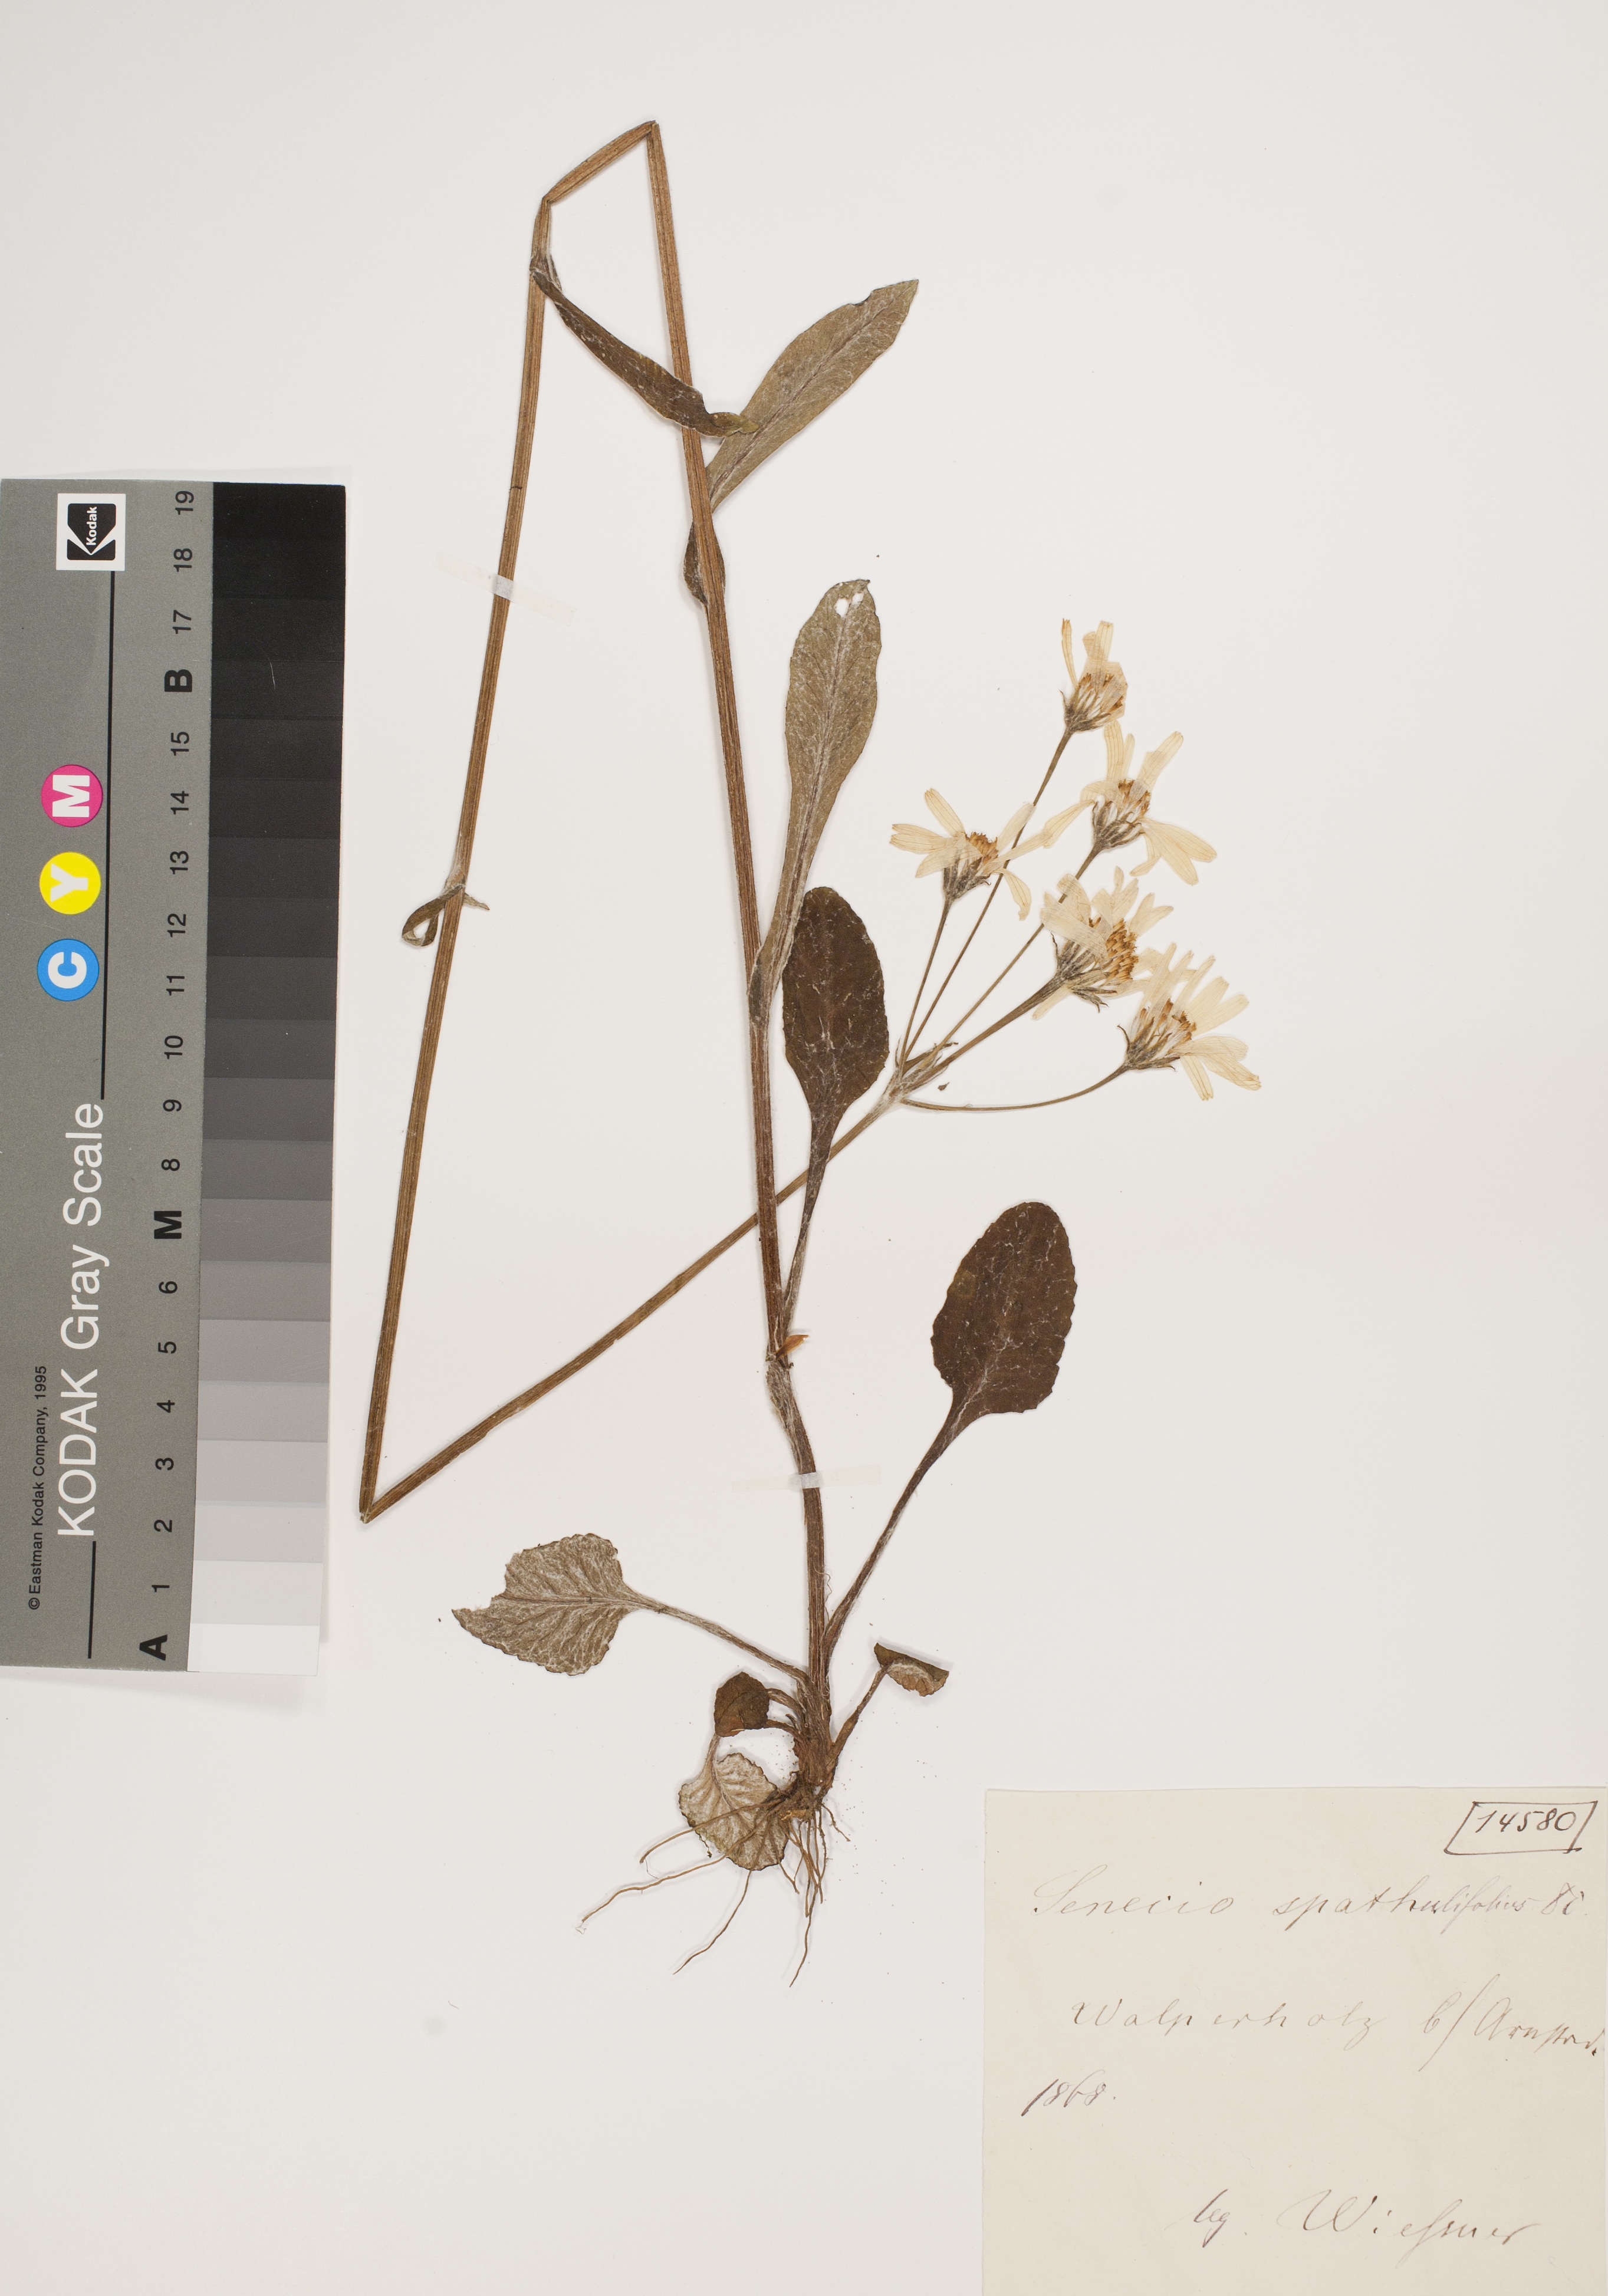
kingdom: Plantae
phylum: Tracheophyta
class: Magnoliopsida
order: Asterales
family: Asteraceae
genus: Senecio
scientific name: Senecio spathulaefolius
